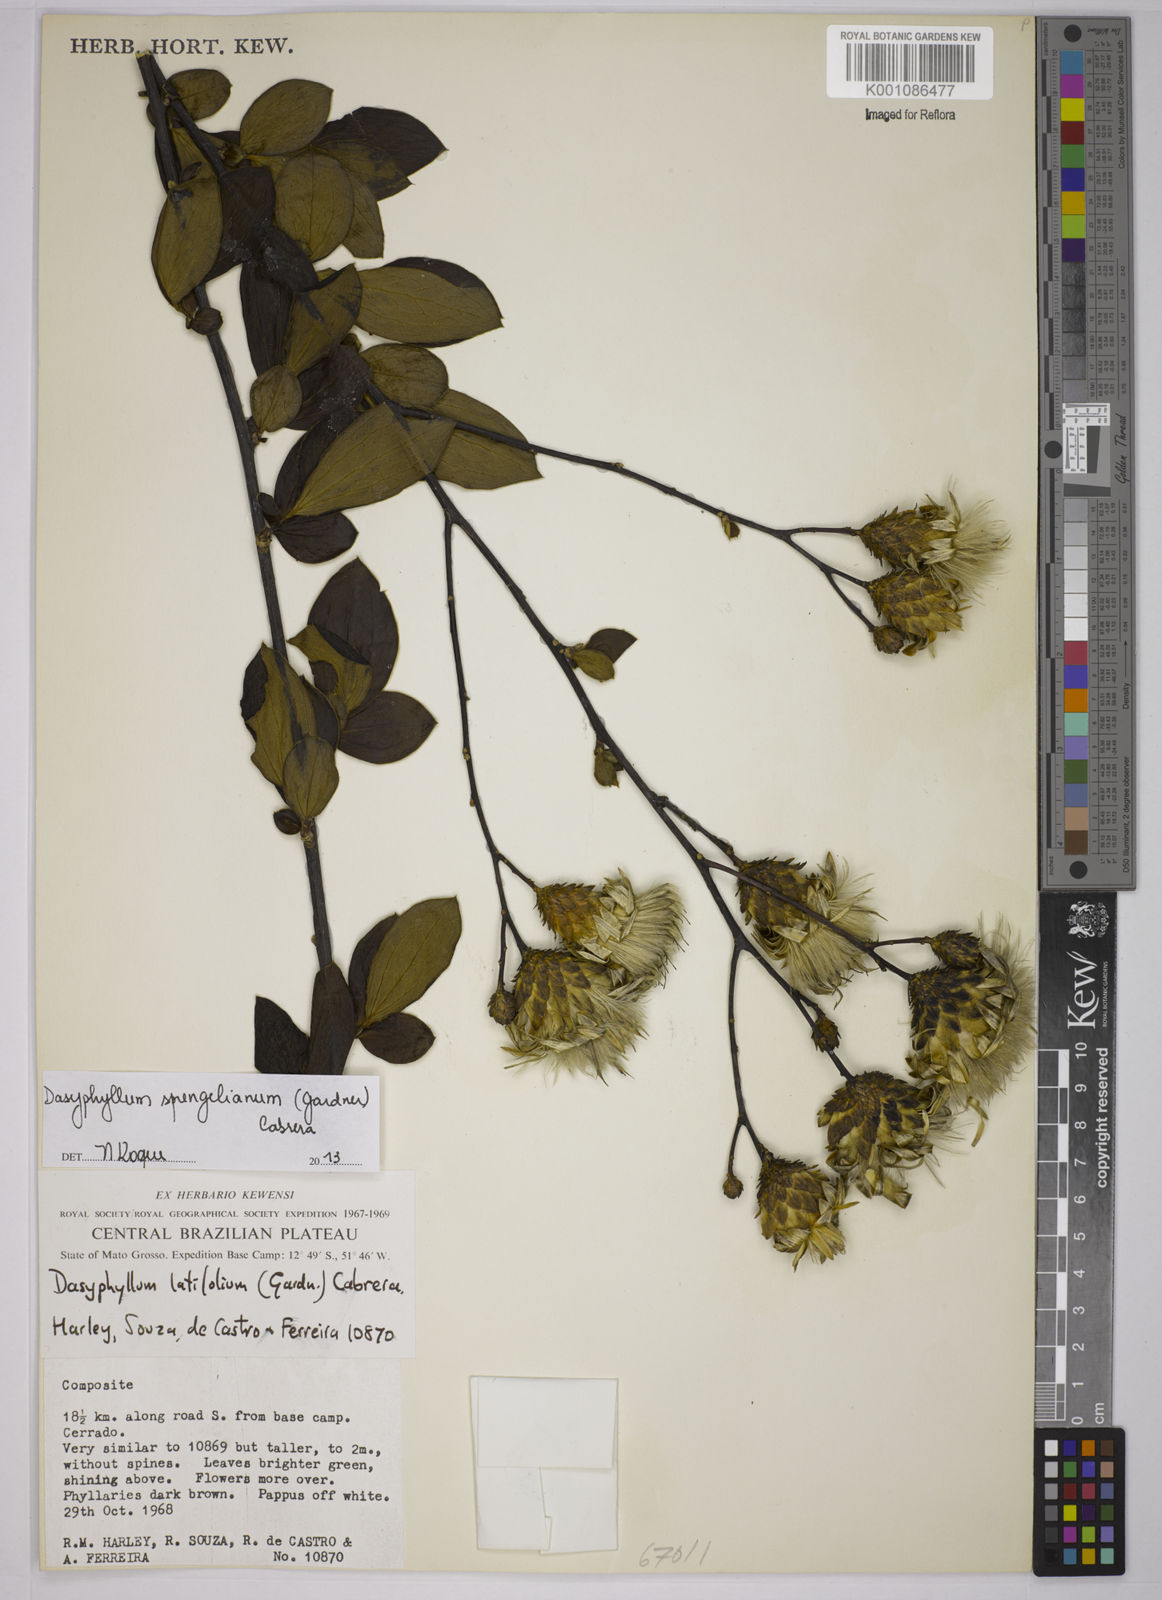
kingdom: Plantae
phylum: Tracheophyta
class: Magnoliopsida
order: Asterales
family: Asteraceae
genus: Dasyphyllum
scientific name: Dasyphyllum sprengelianum
